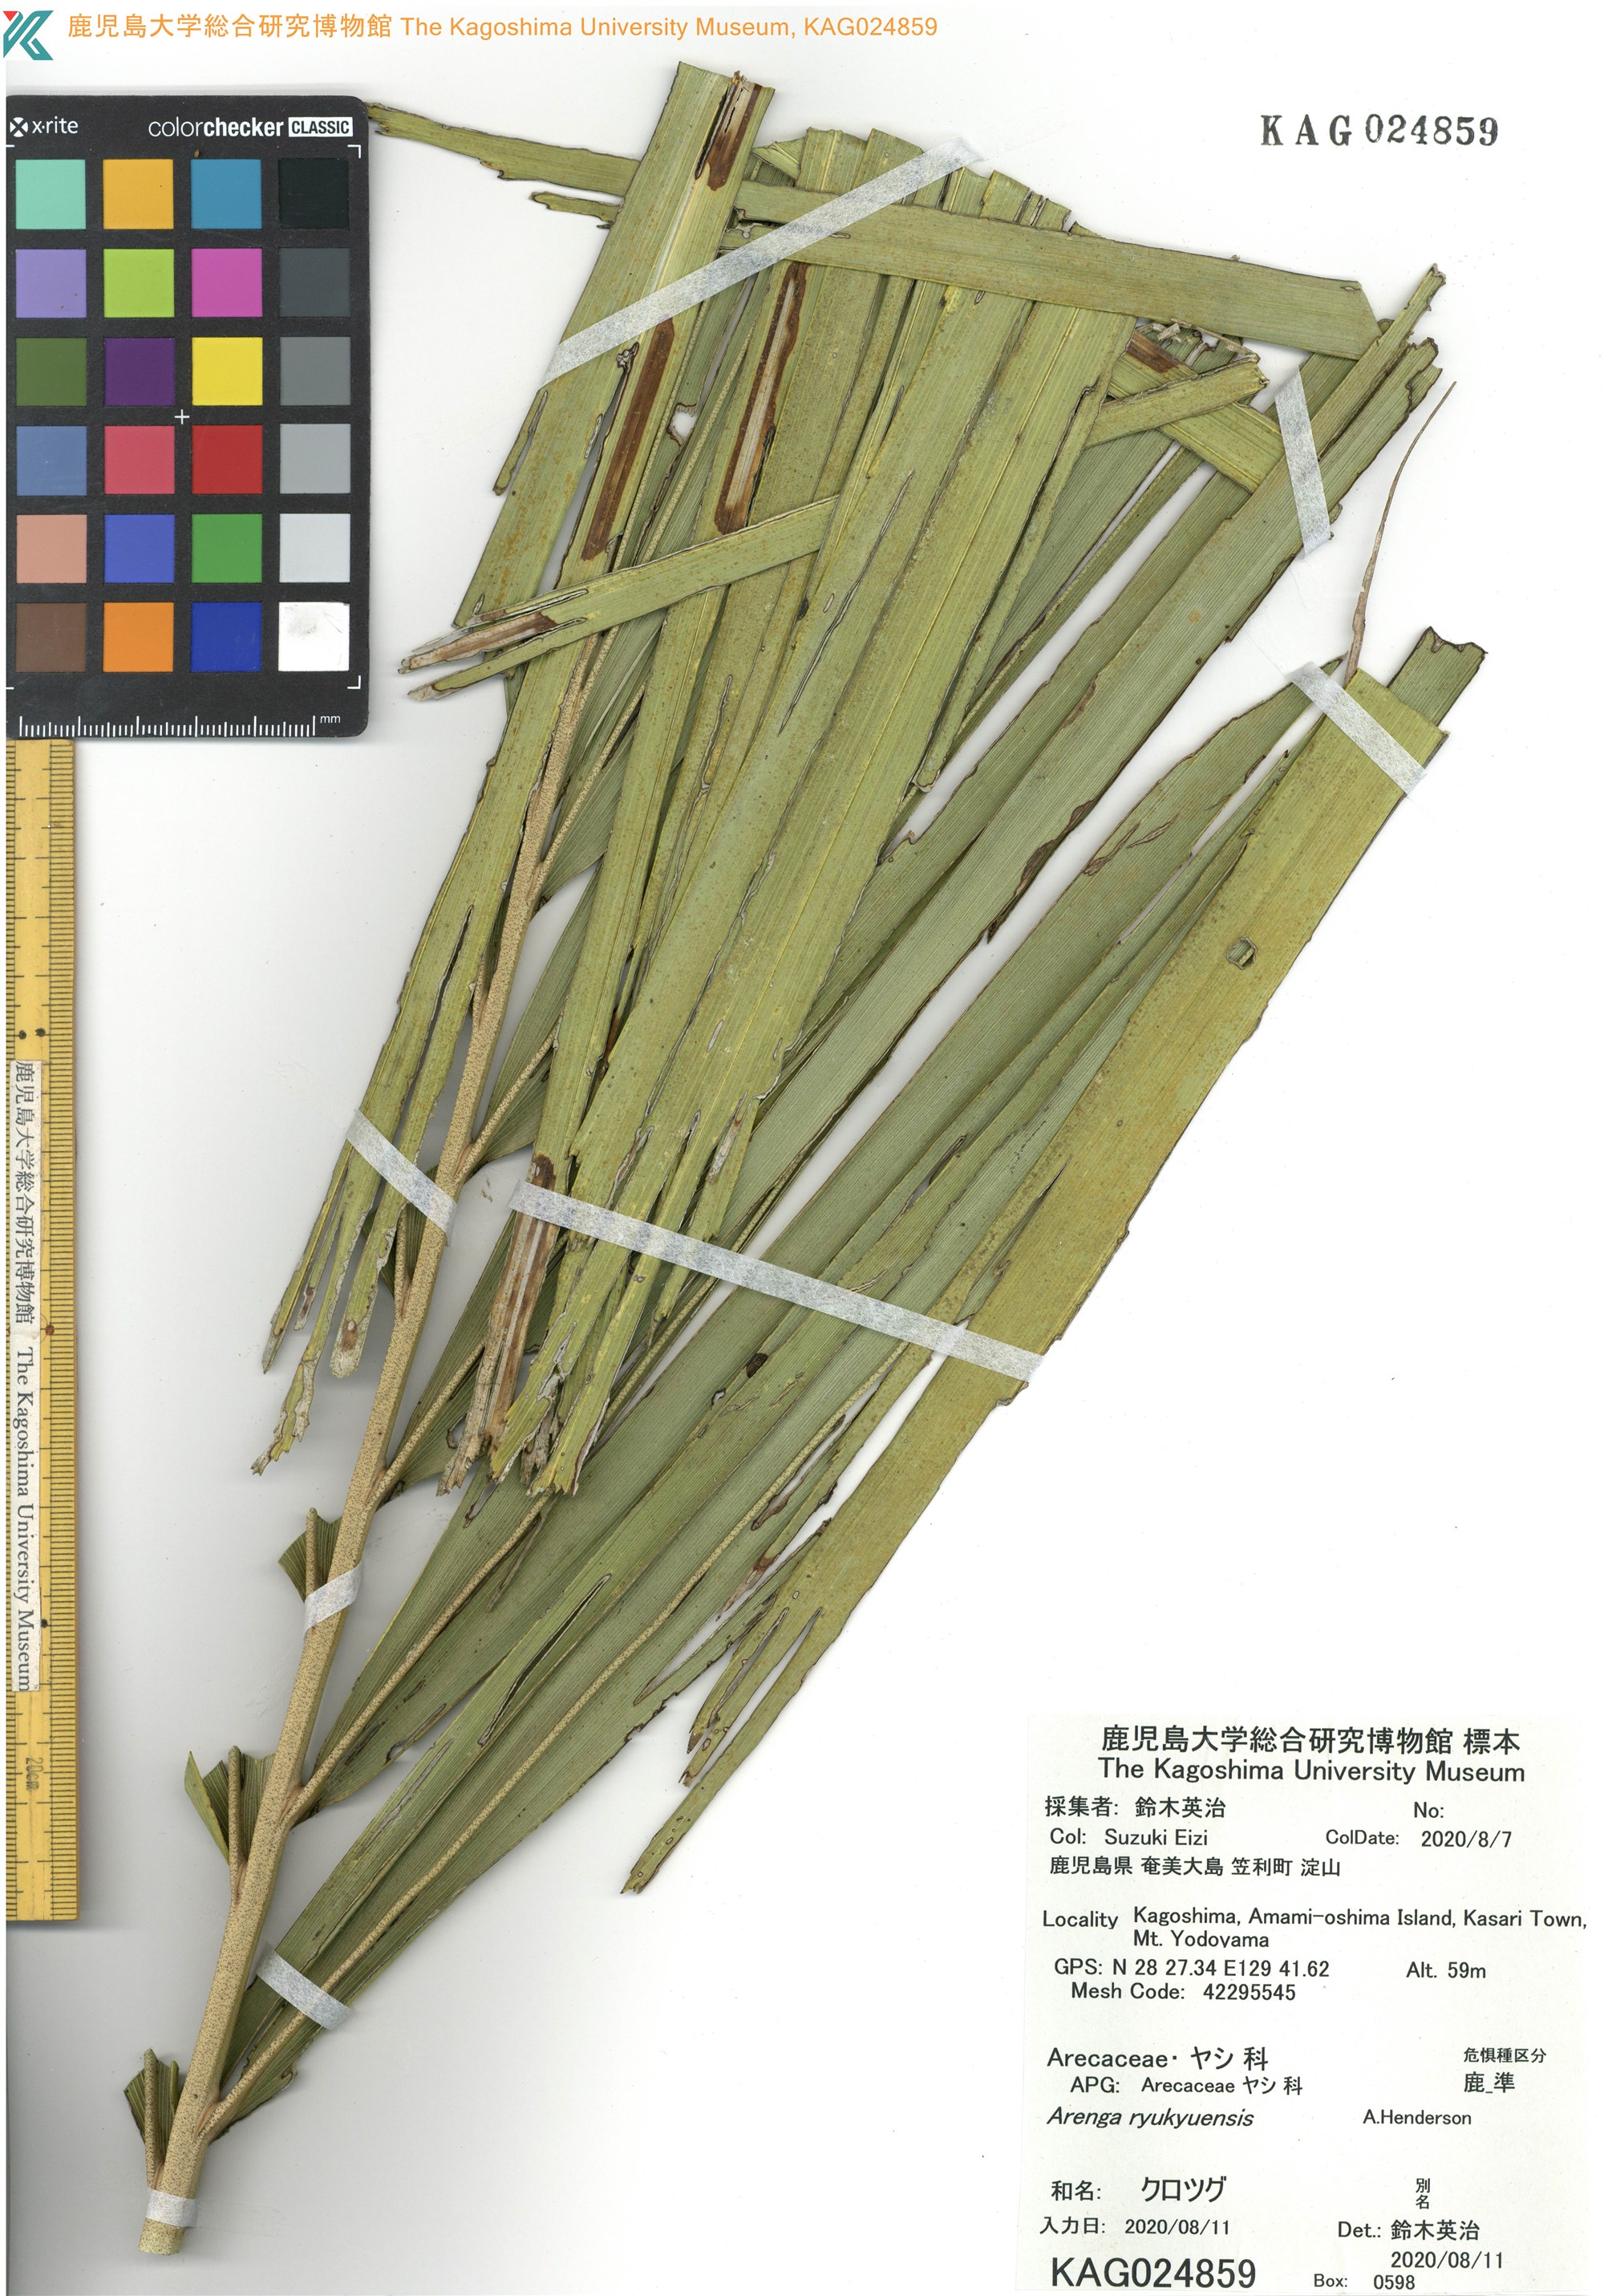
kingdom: Plantae
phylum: Tracheophyta
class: Liliopsida
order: Arecales
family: Arecaceae
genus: Arenga
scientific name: Arenga ryukyuensis
